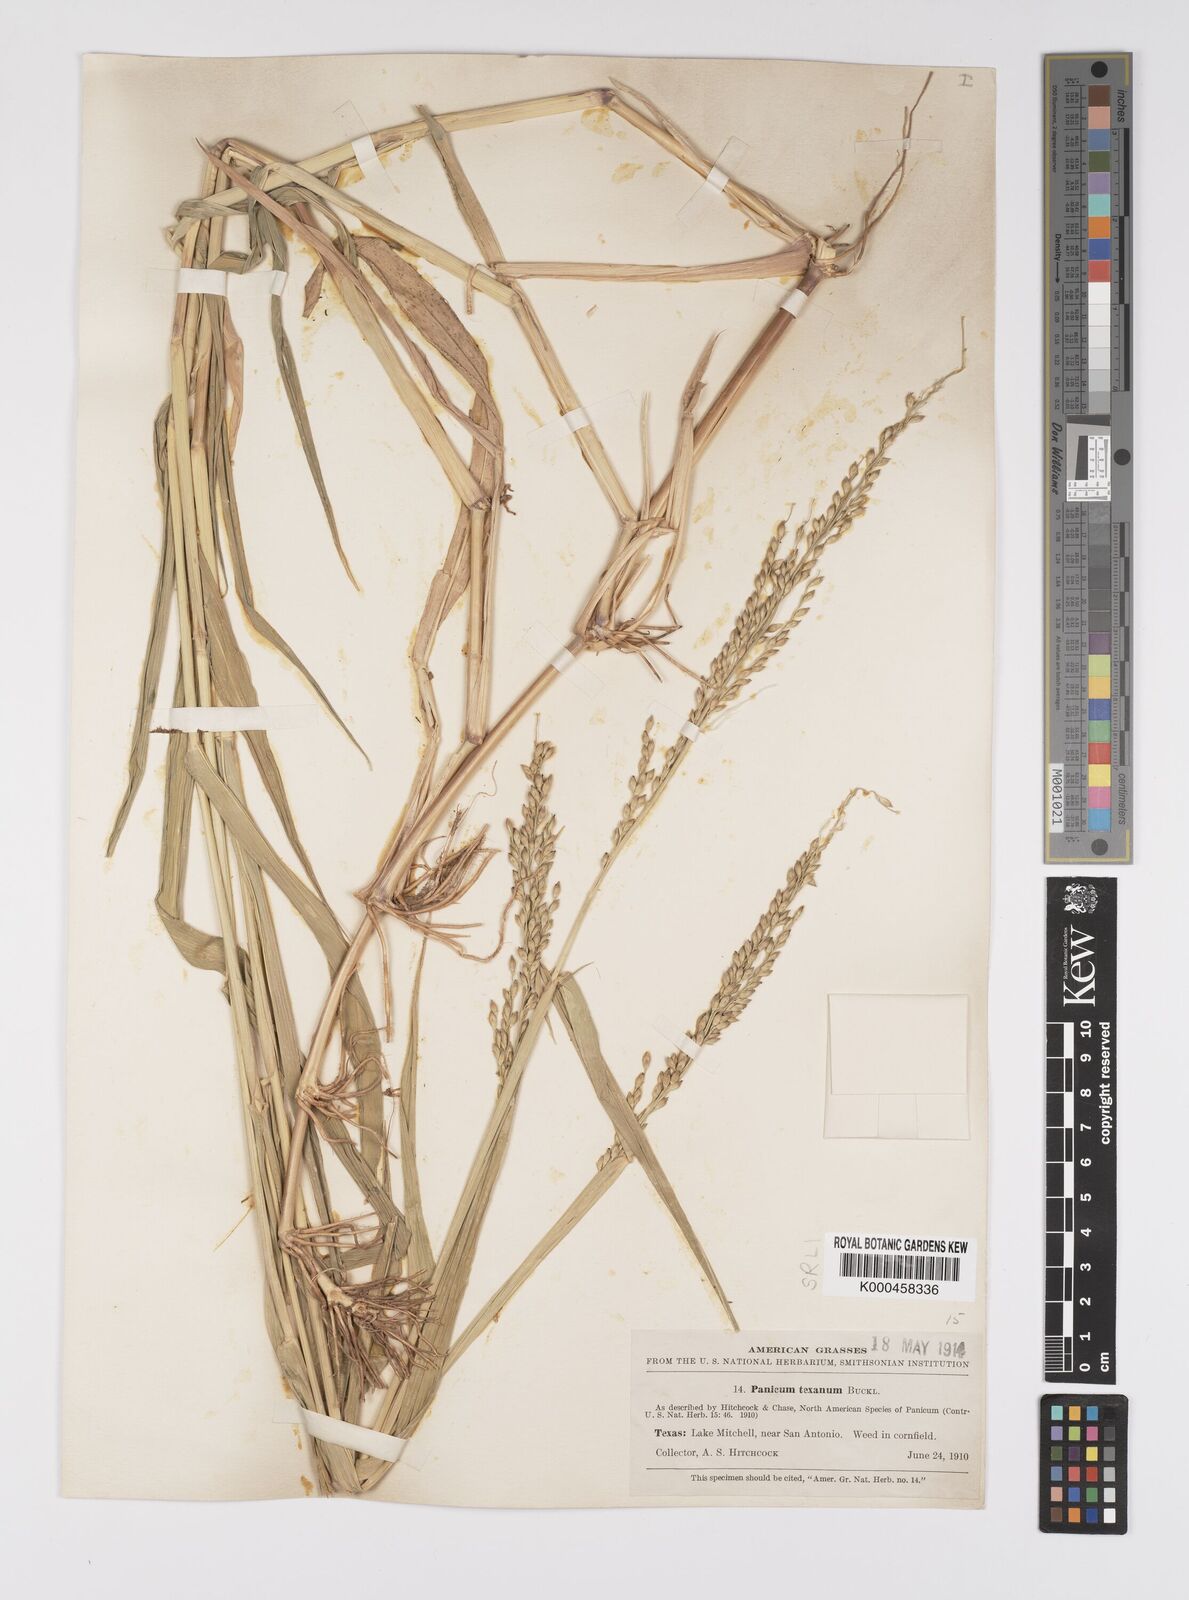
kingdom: Plantae
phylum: Tracheophyta
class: Liliopsida
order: Poales
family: Poaceae
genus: Urochloa
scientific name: Urochloa texana
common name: Texas millet
